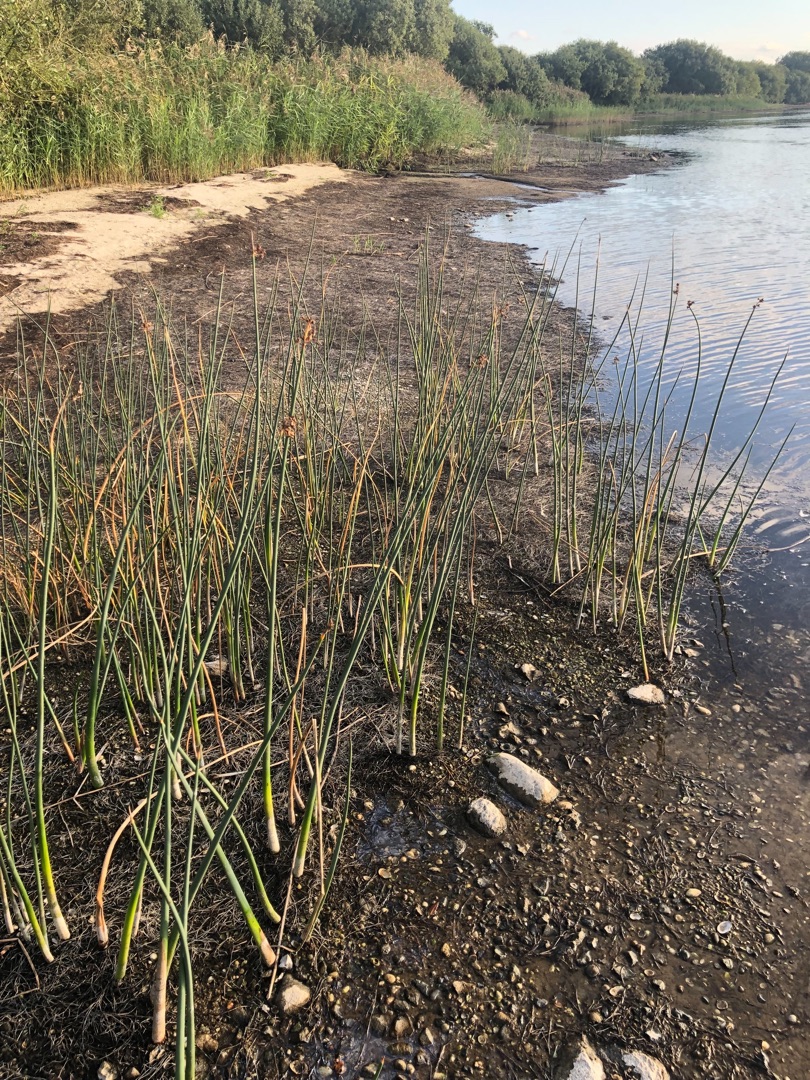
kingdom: Plantae
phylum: Tracheophyta
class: Liliopsida
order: Poales
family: Cyperaceae
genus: Schoenoplectus
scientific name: Schoenoplectus tabernaemontani
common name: Blågrøn kogleaks
